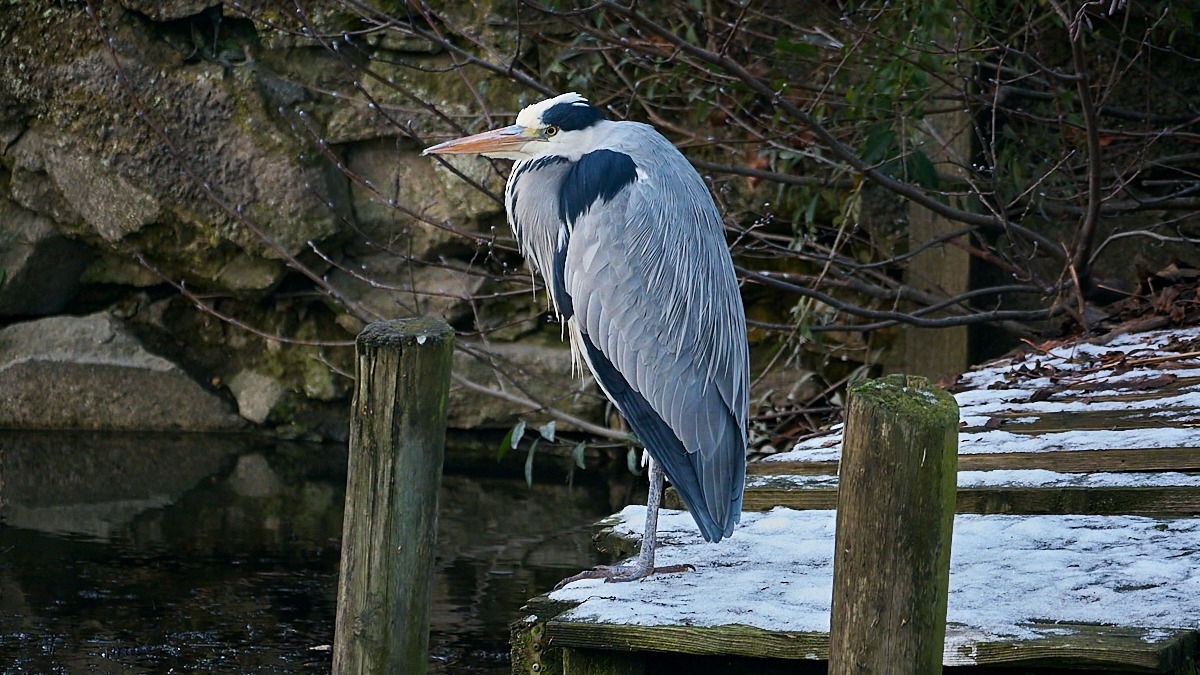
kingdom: Animalia
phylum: Chordata
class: Aves
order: Pelecaniformes
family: Ardeidae
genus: Ardea
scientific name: Ardea cinerea
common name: Fiskehejre
